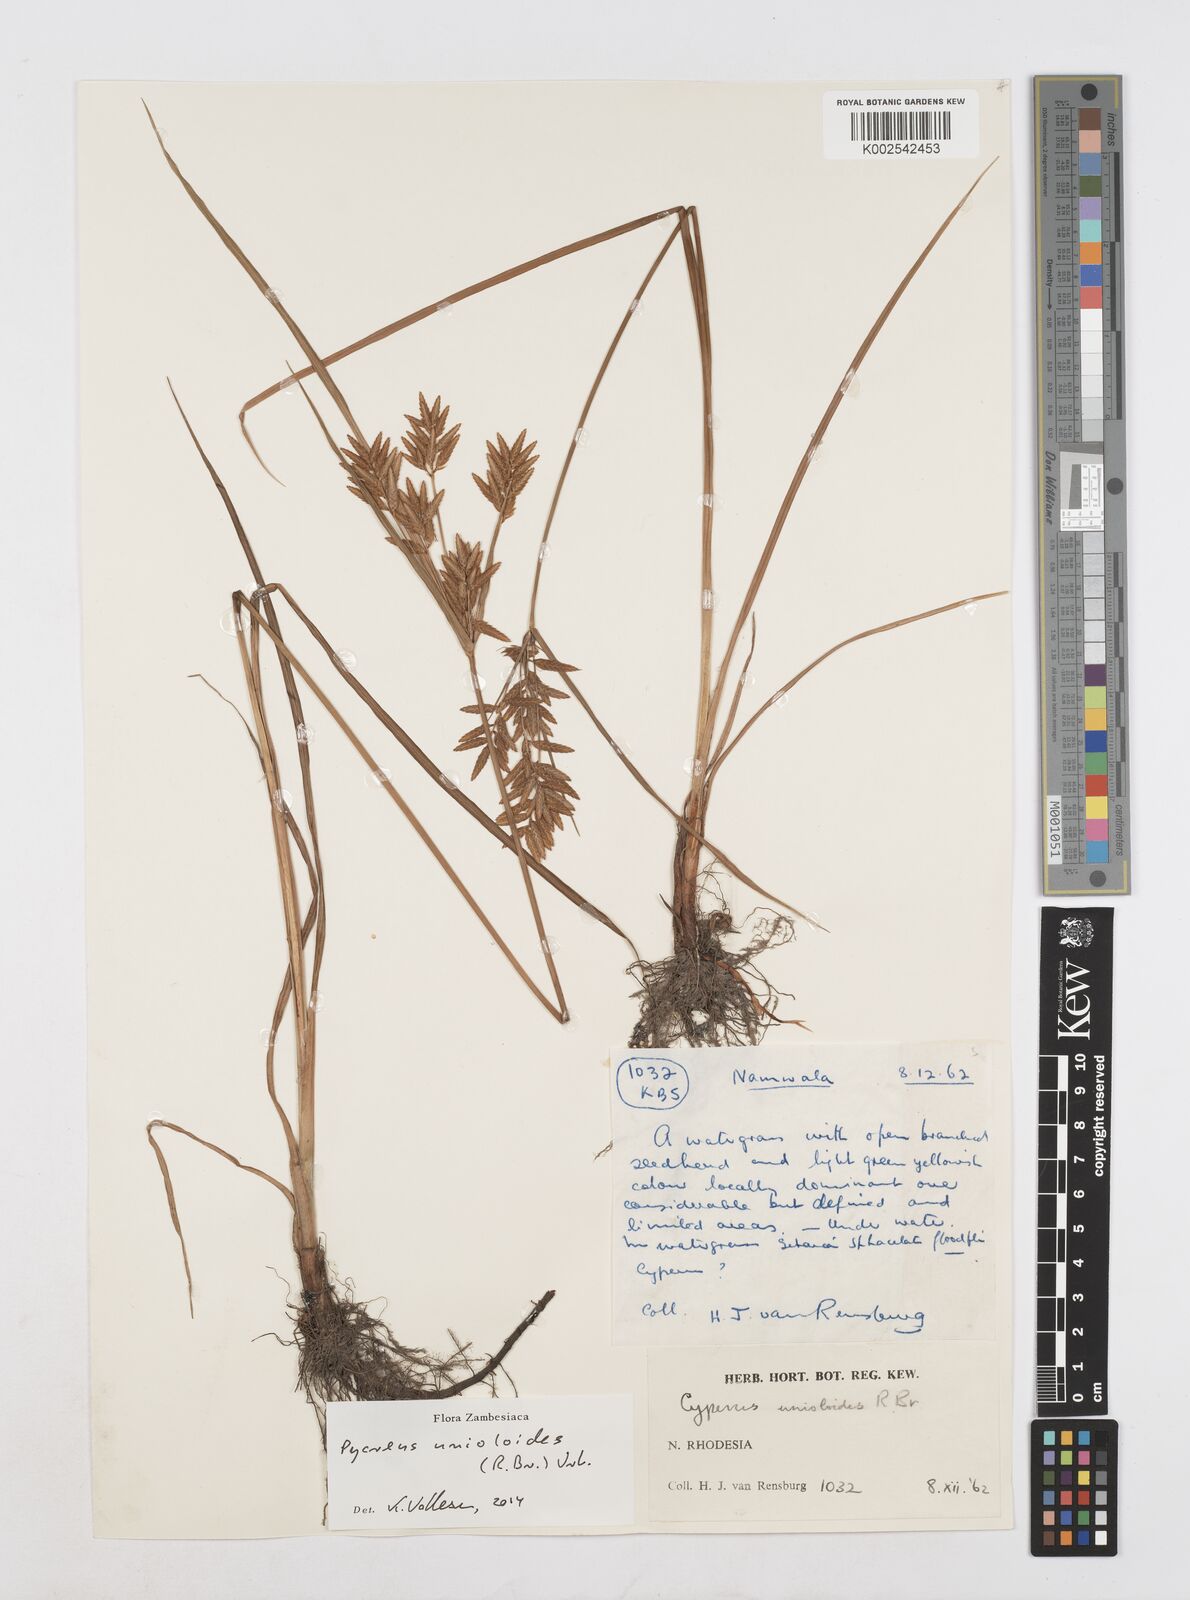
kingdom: Plantae
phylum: Tracheophyta
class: Liliopsida
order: Poales
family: Cyperaceae
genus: Cyperus
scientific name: Cyperus unioloides
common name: Uniola flatsedge
